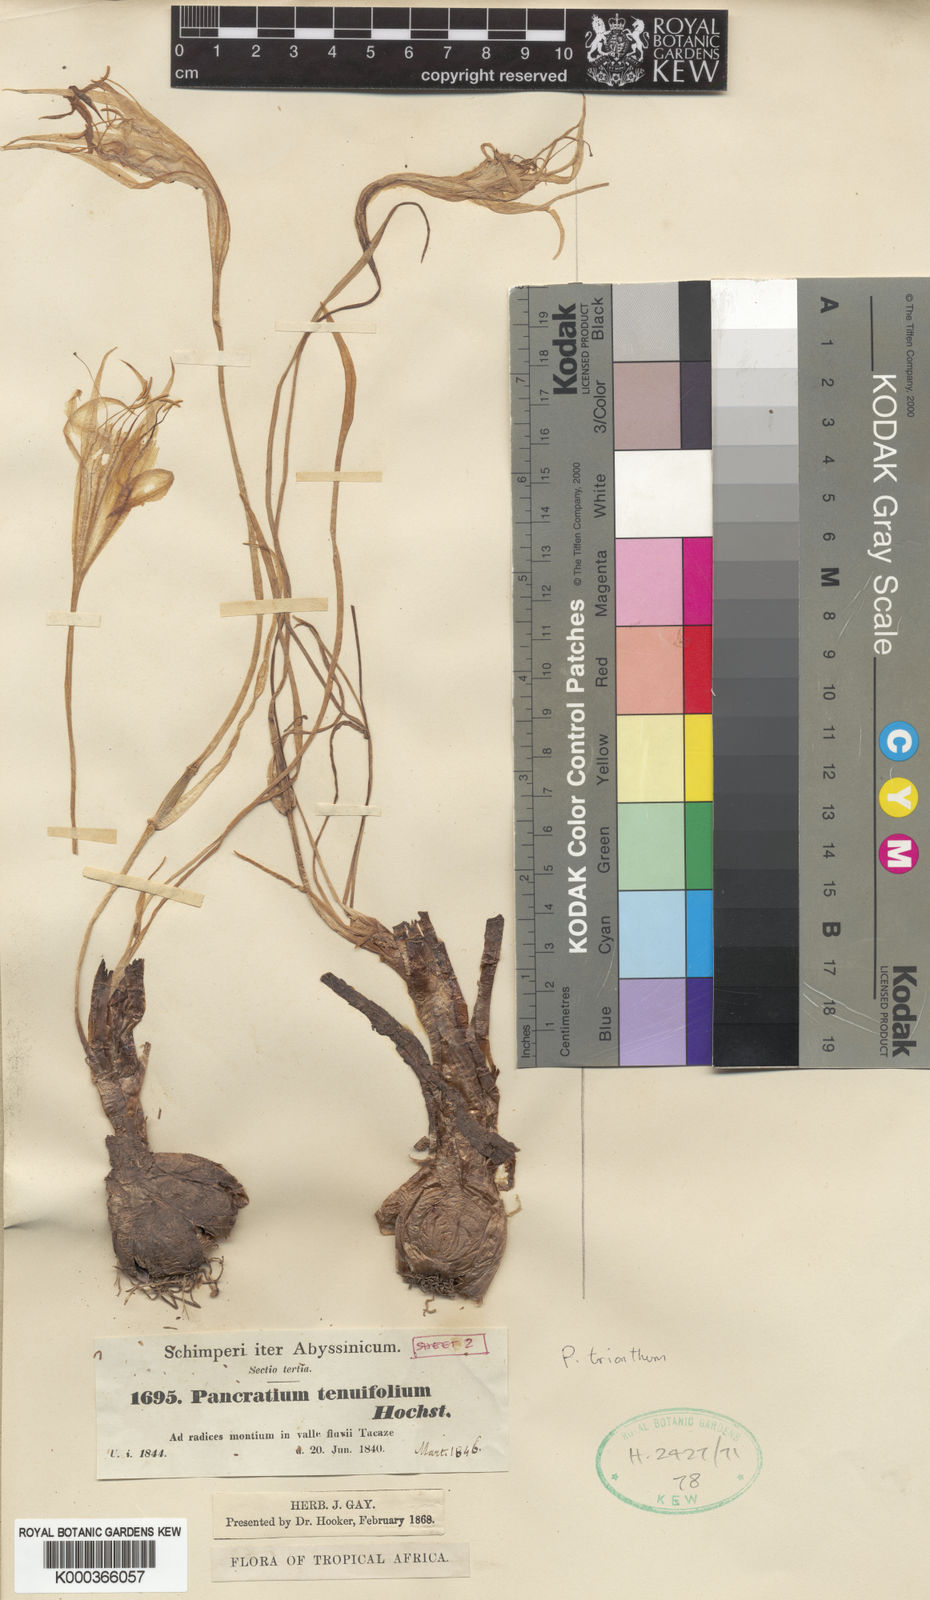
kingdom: Plantae
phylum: Tracheophyta
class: Liliopsida
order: Asparagales
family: Amaryllidaceae
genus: Pancratium
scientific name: Pancratium
